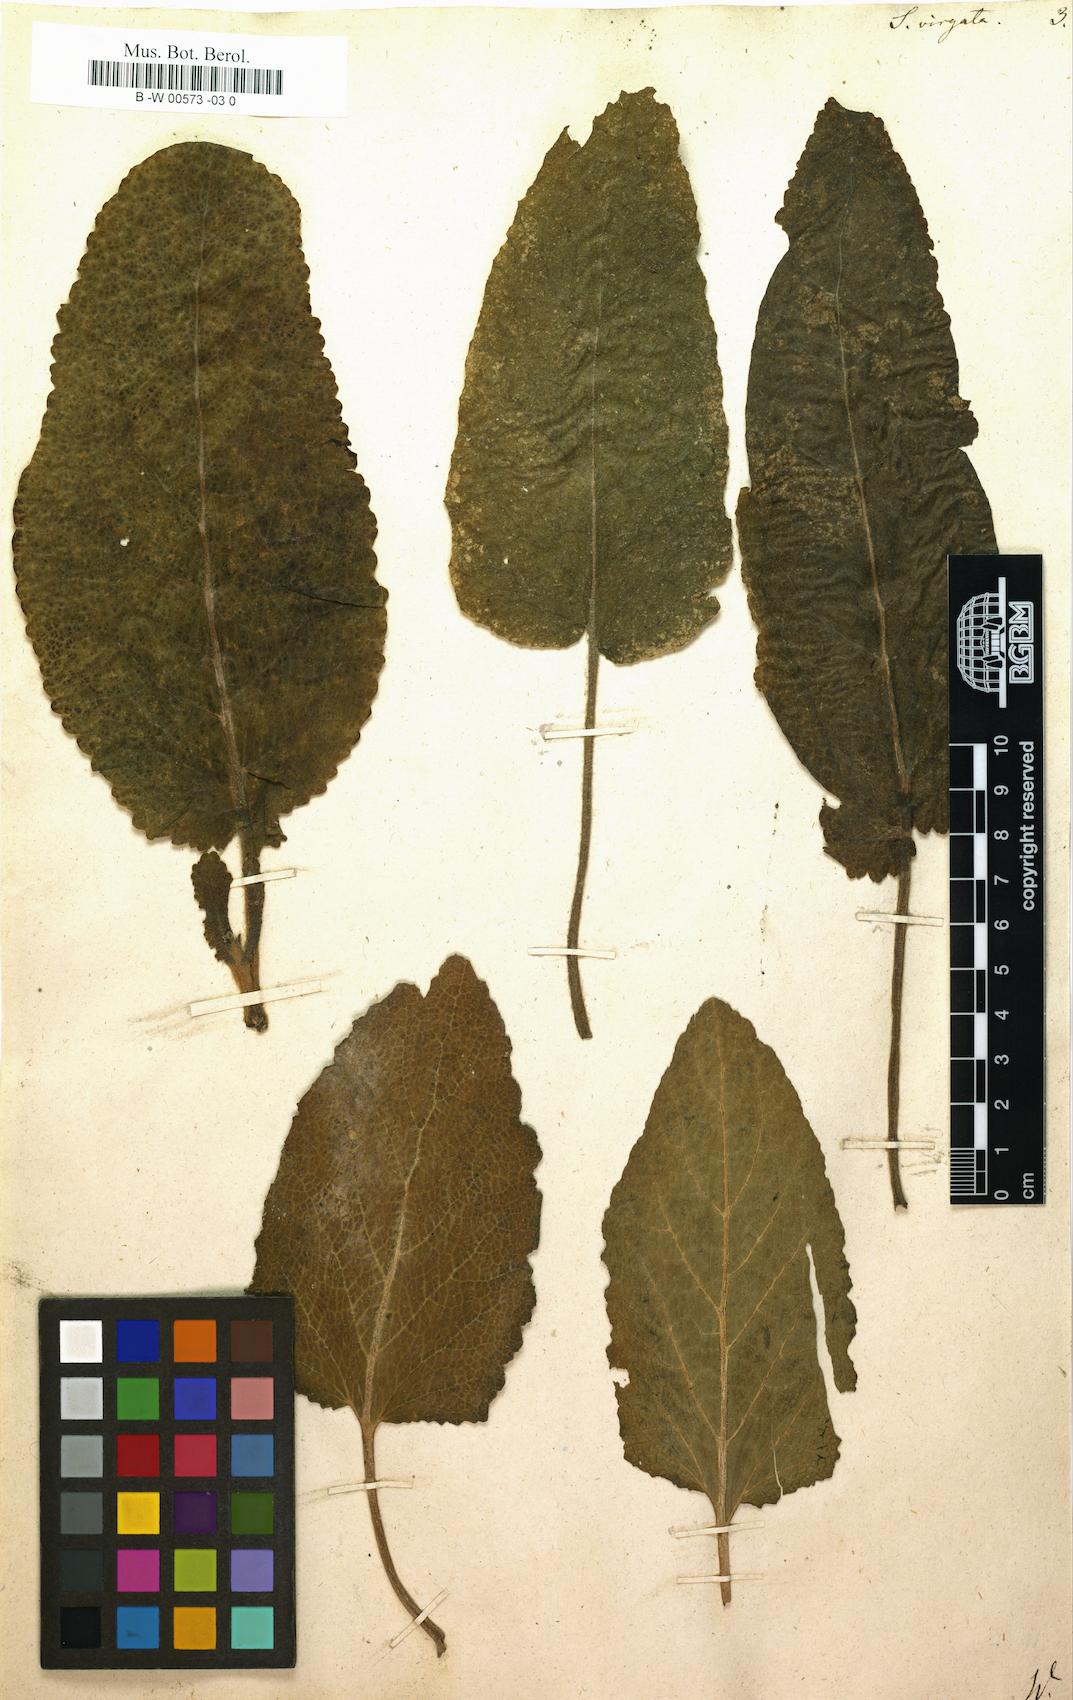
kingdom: Plantae
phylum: Tracheophyta
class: Magnoliopsida
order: Lamiales
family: Lamiaceae
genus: Salvia
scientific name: Salvia virgata
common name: Wand sage
